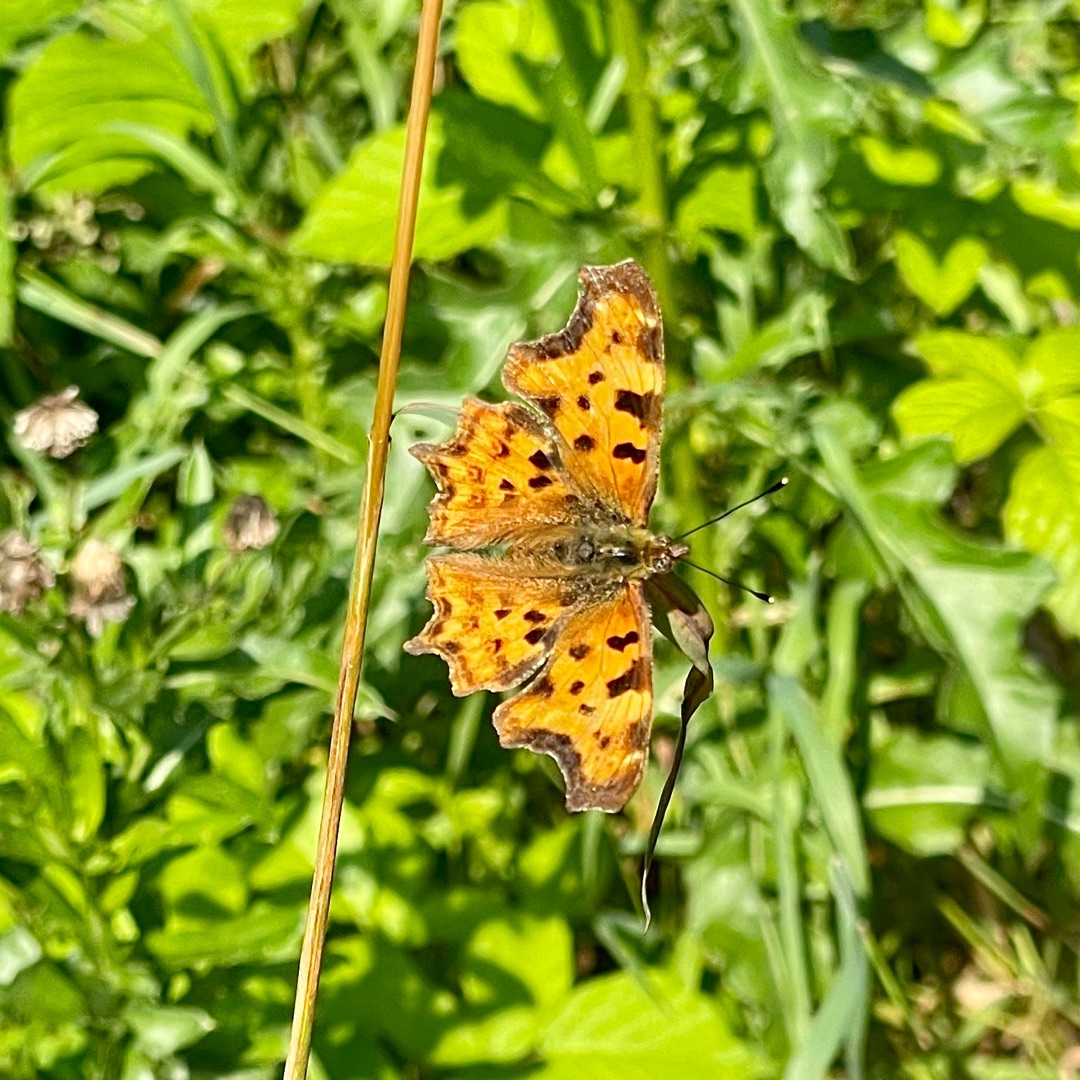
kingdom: Animalia
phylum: Arthropoda
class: Insecta
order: Lepidoptera
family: Nymphalidae
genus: Polygonia
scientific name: Polygonia c-album
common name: Det hvide C
